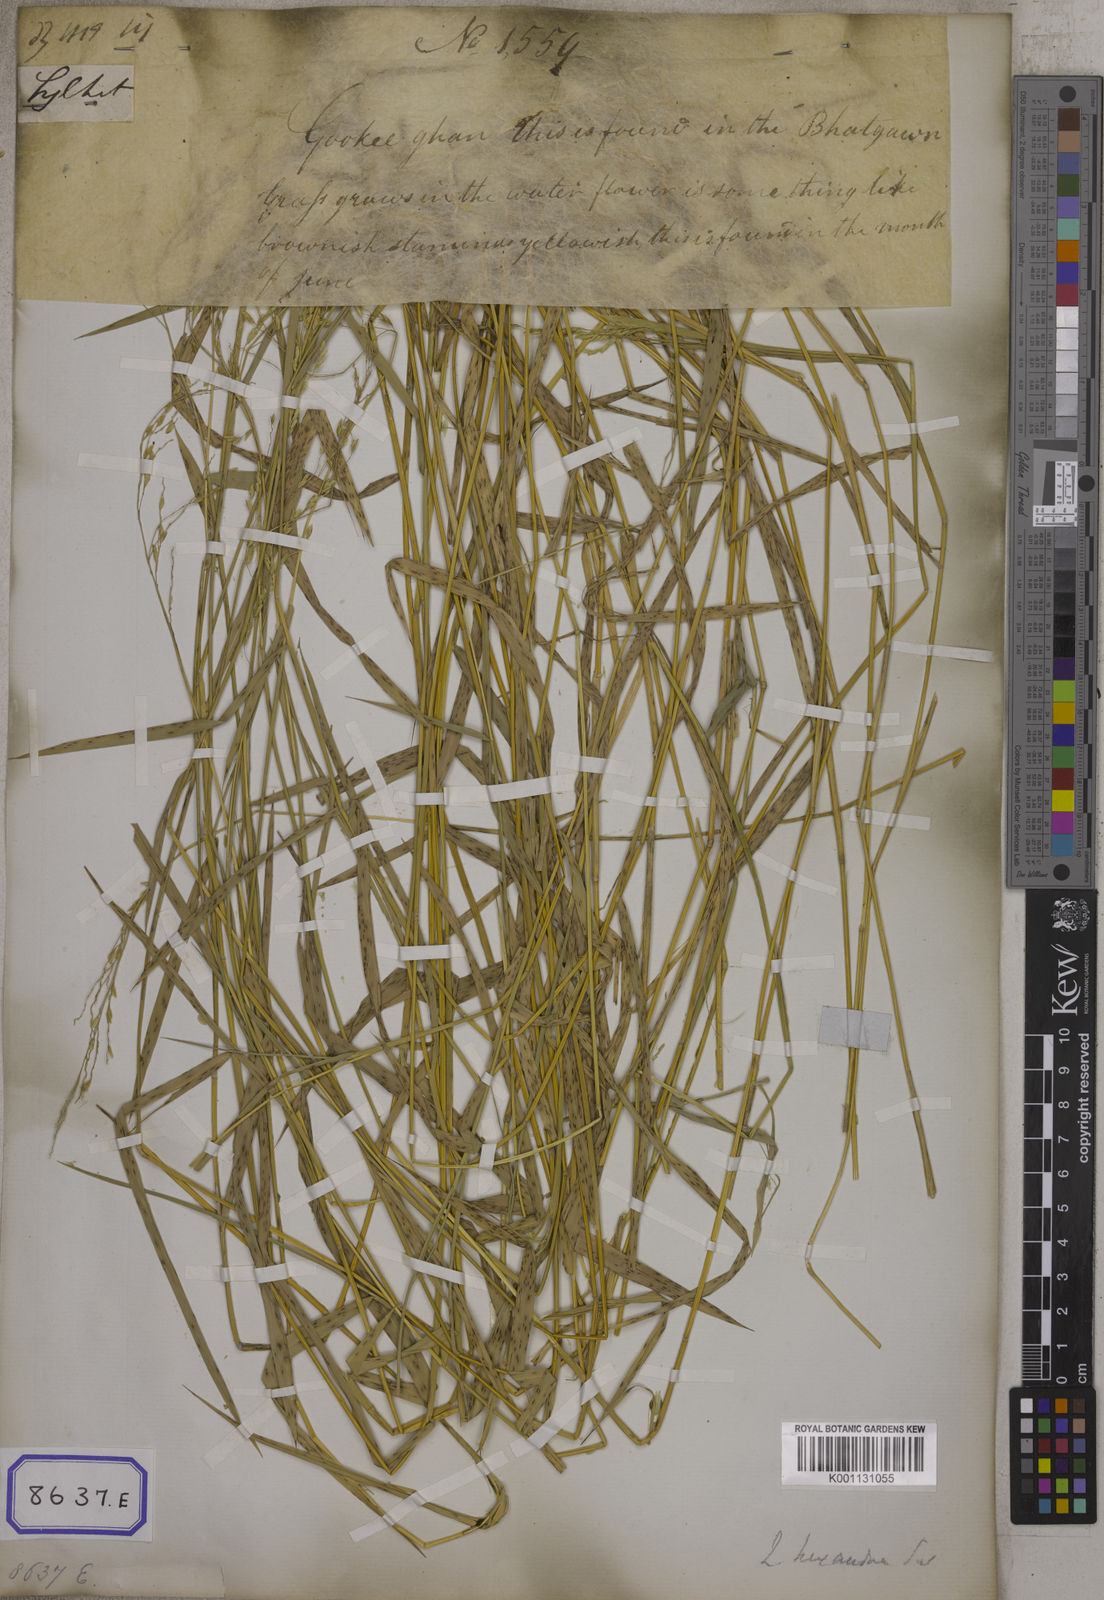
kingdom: Plantae
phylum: Tracheophyta
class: Liliopsida
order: Poales
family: Poaceae
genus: Leersia
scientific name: Leersia oryzoides
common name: Cut-grass
